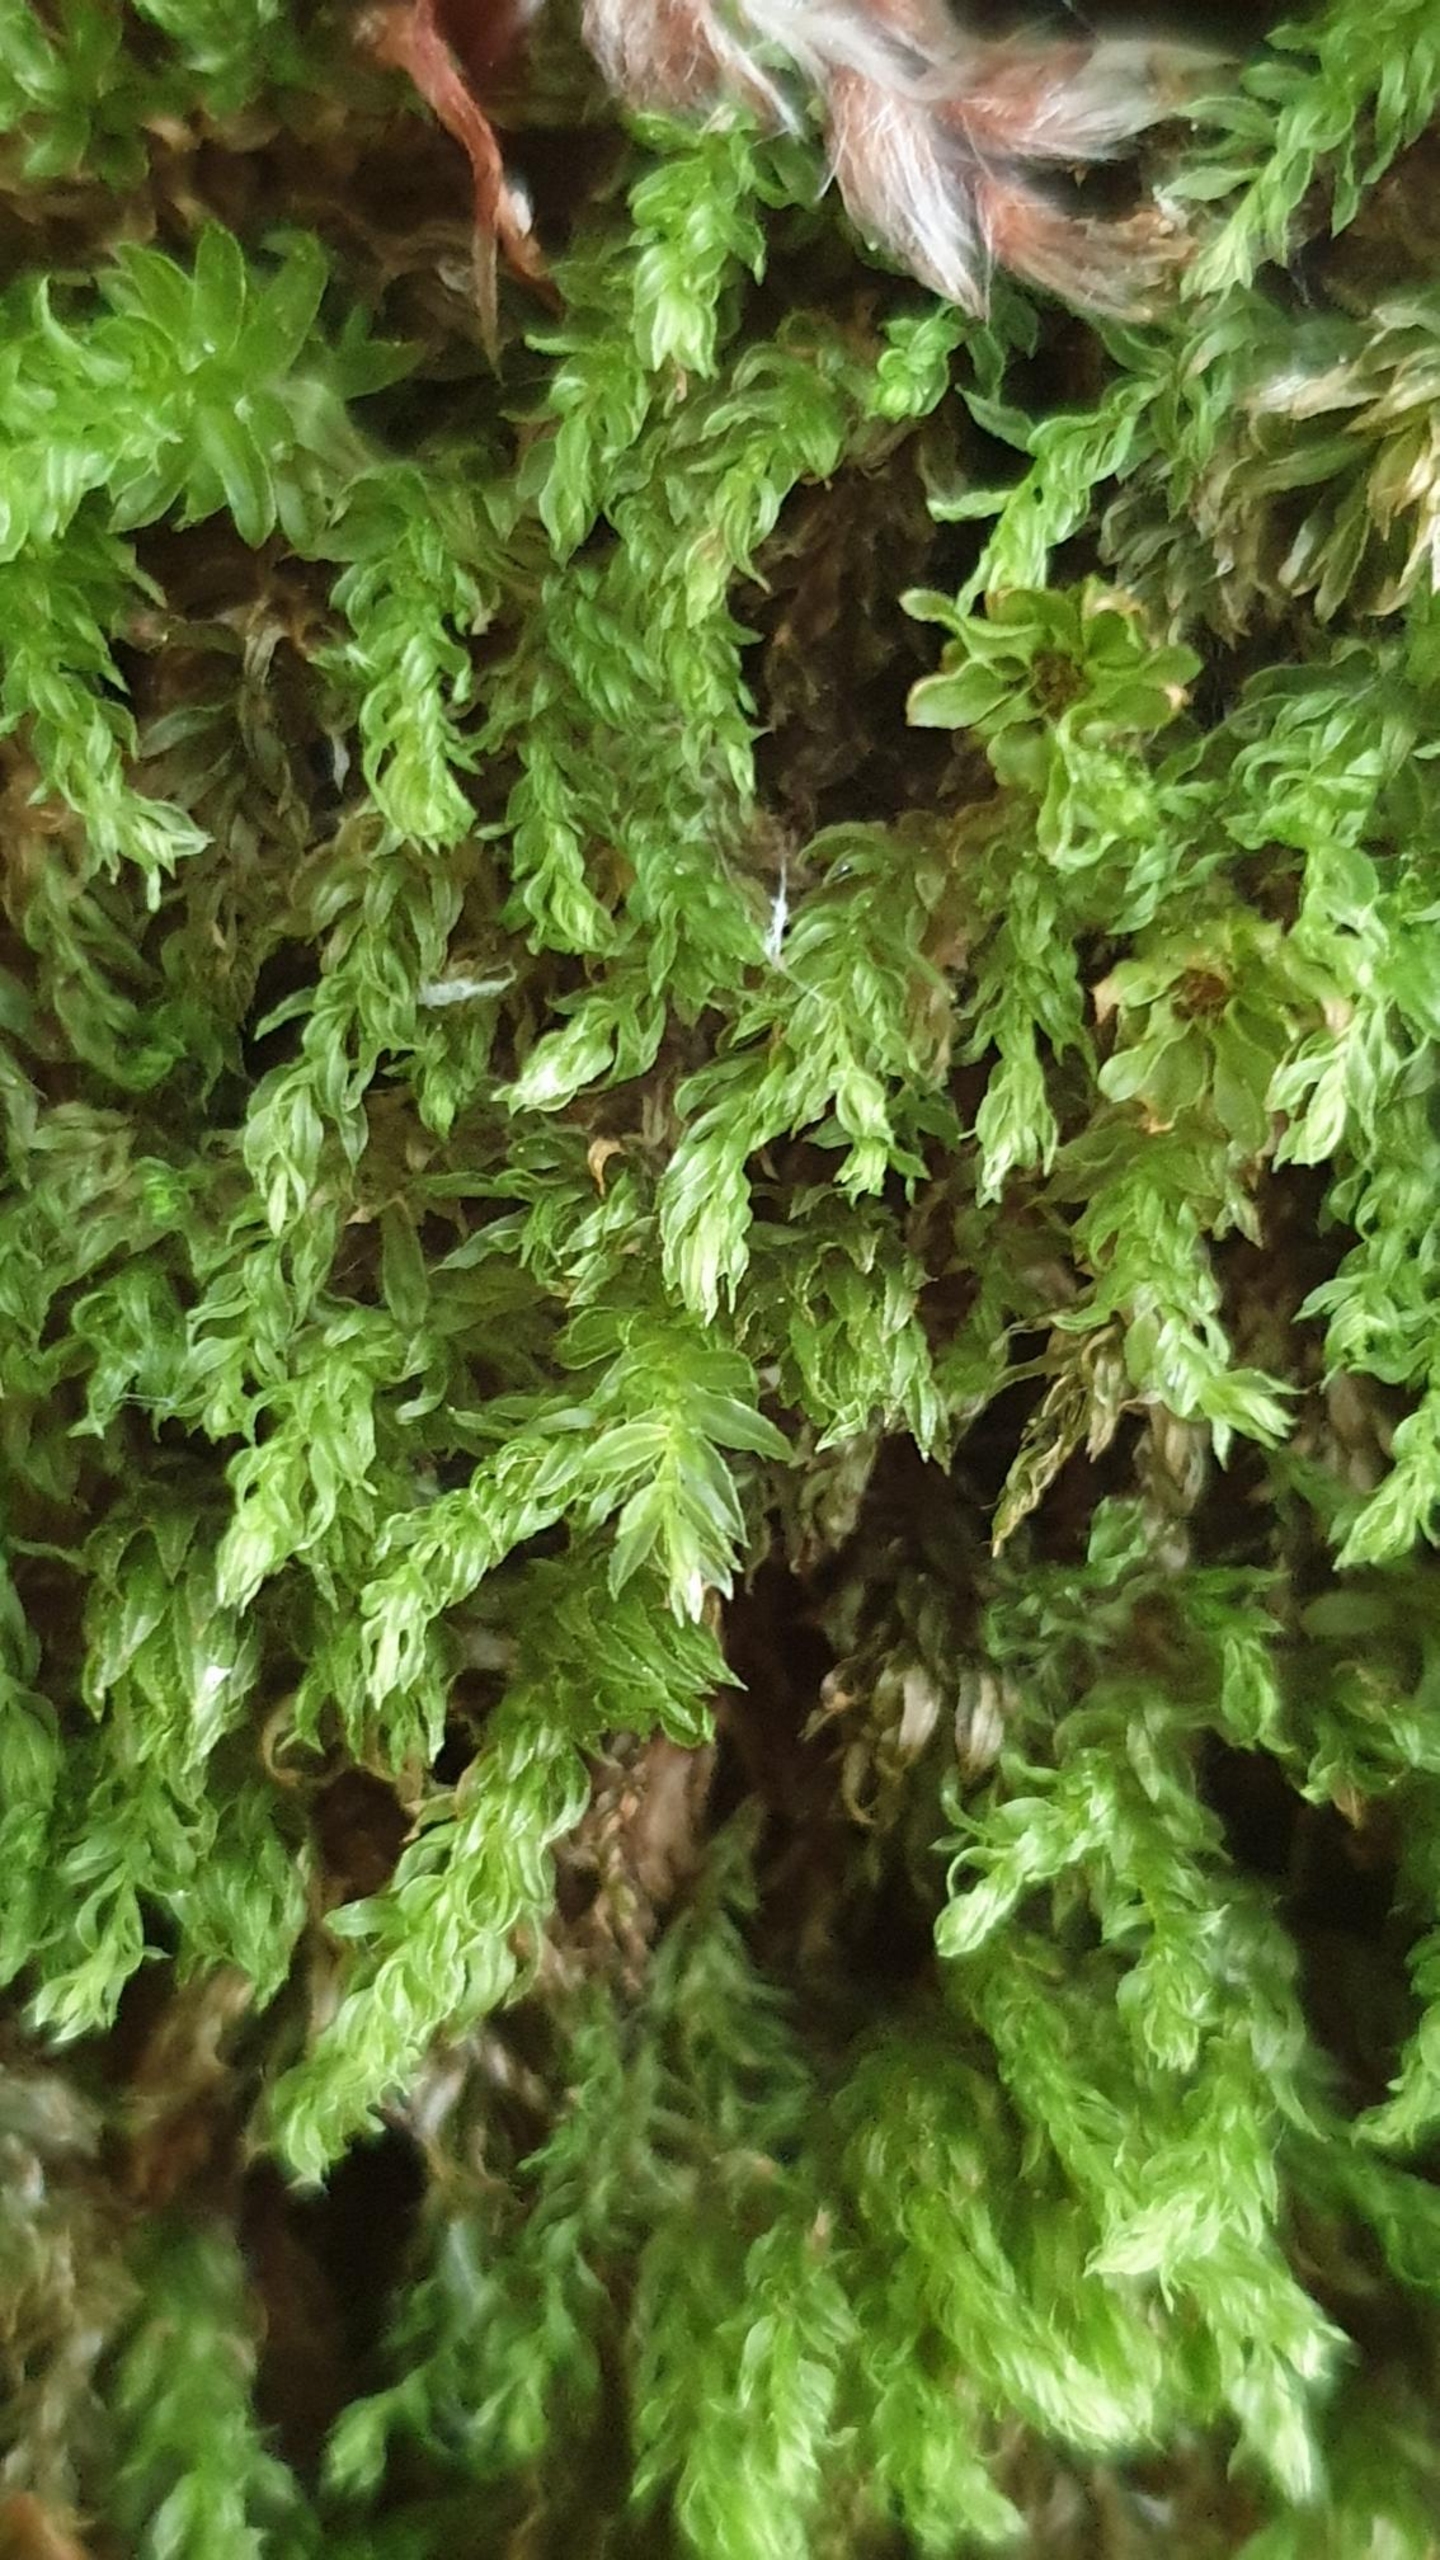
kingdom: Plantae
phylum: Bryophyta
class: Bryopsida
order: Bryales
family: Mniaceae
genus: Mnium
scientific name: Mnium hornum
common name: Brunfiltet stjernemos
